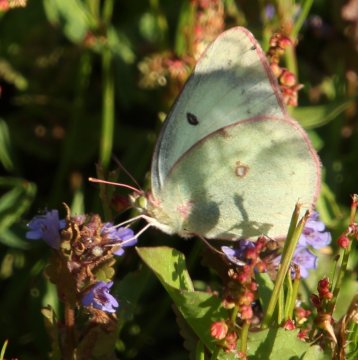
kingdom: Animalia
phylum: Arthropoda
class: Insecta
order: Lepidoptera
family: Pieridae
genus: Colias
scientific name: Colias philodice
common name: Clouded Sulphur
